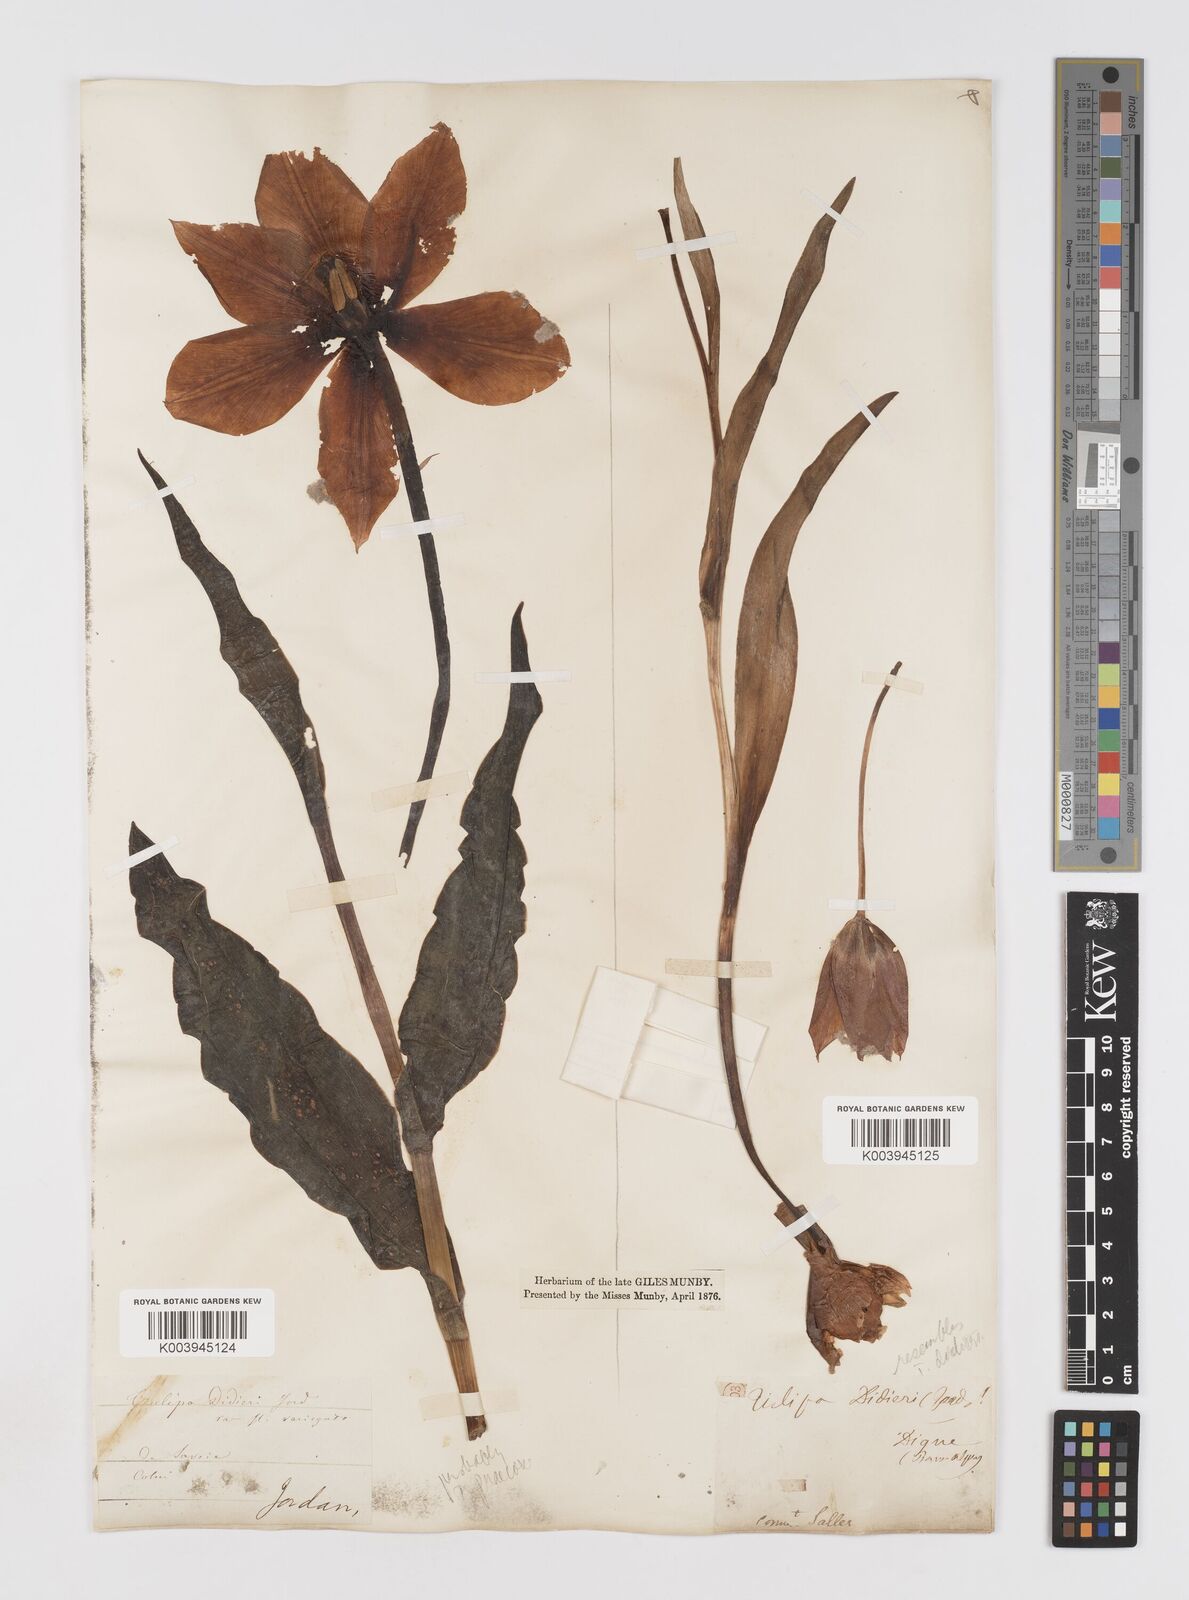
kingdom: Plantae
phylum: Tracheophyta
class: Liliopsida
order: Liliales
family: Liliaceae
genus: Tulipa
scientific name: Tulipa
